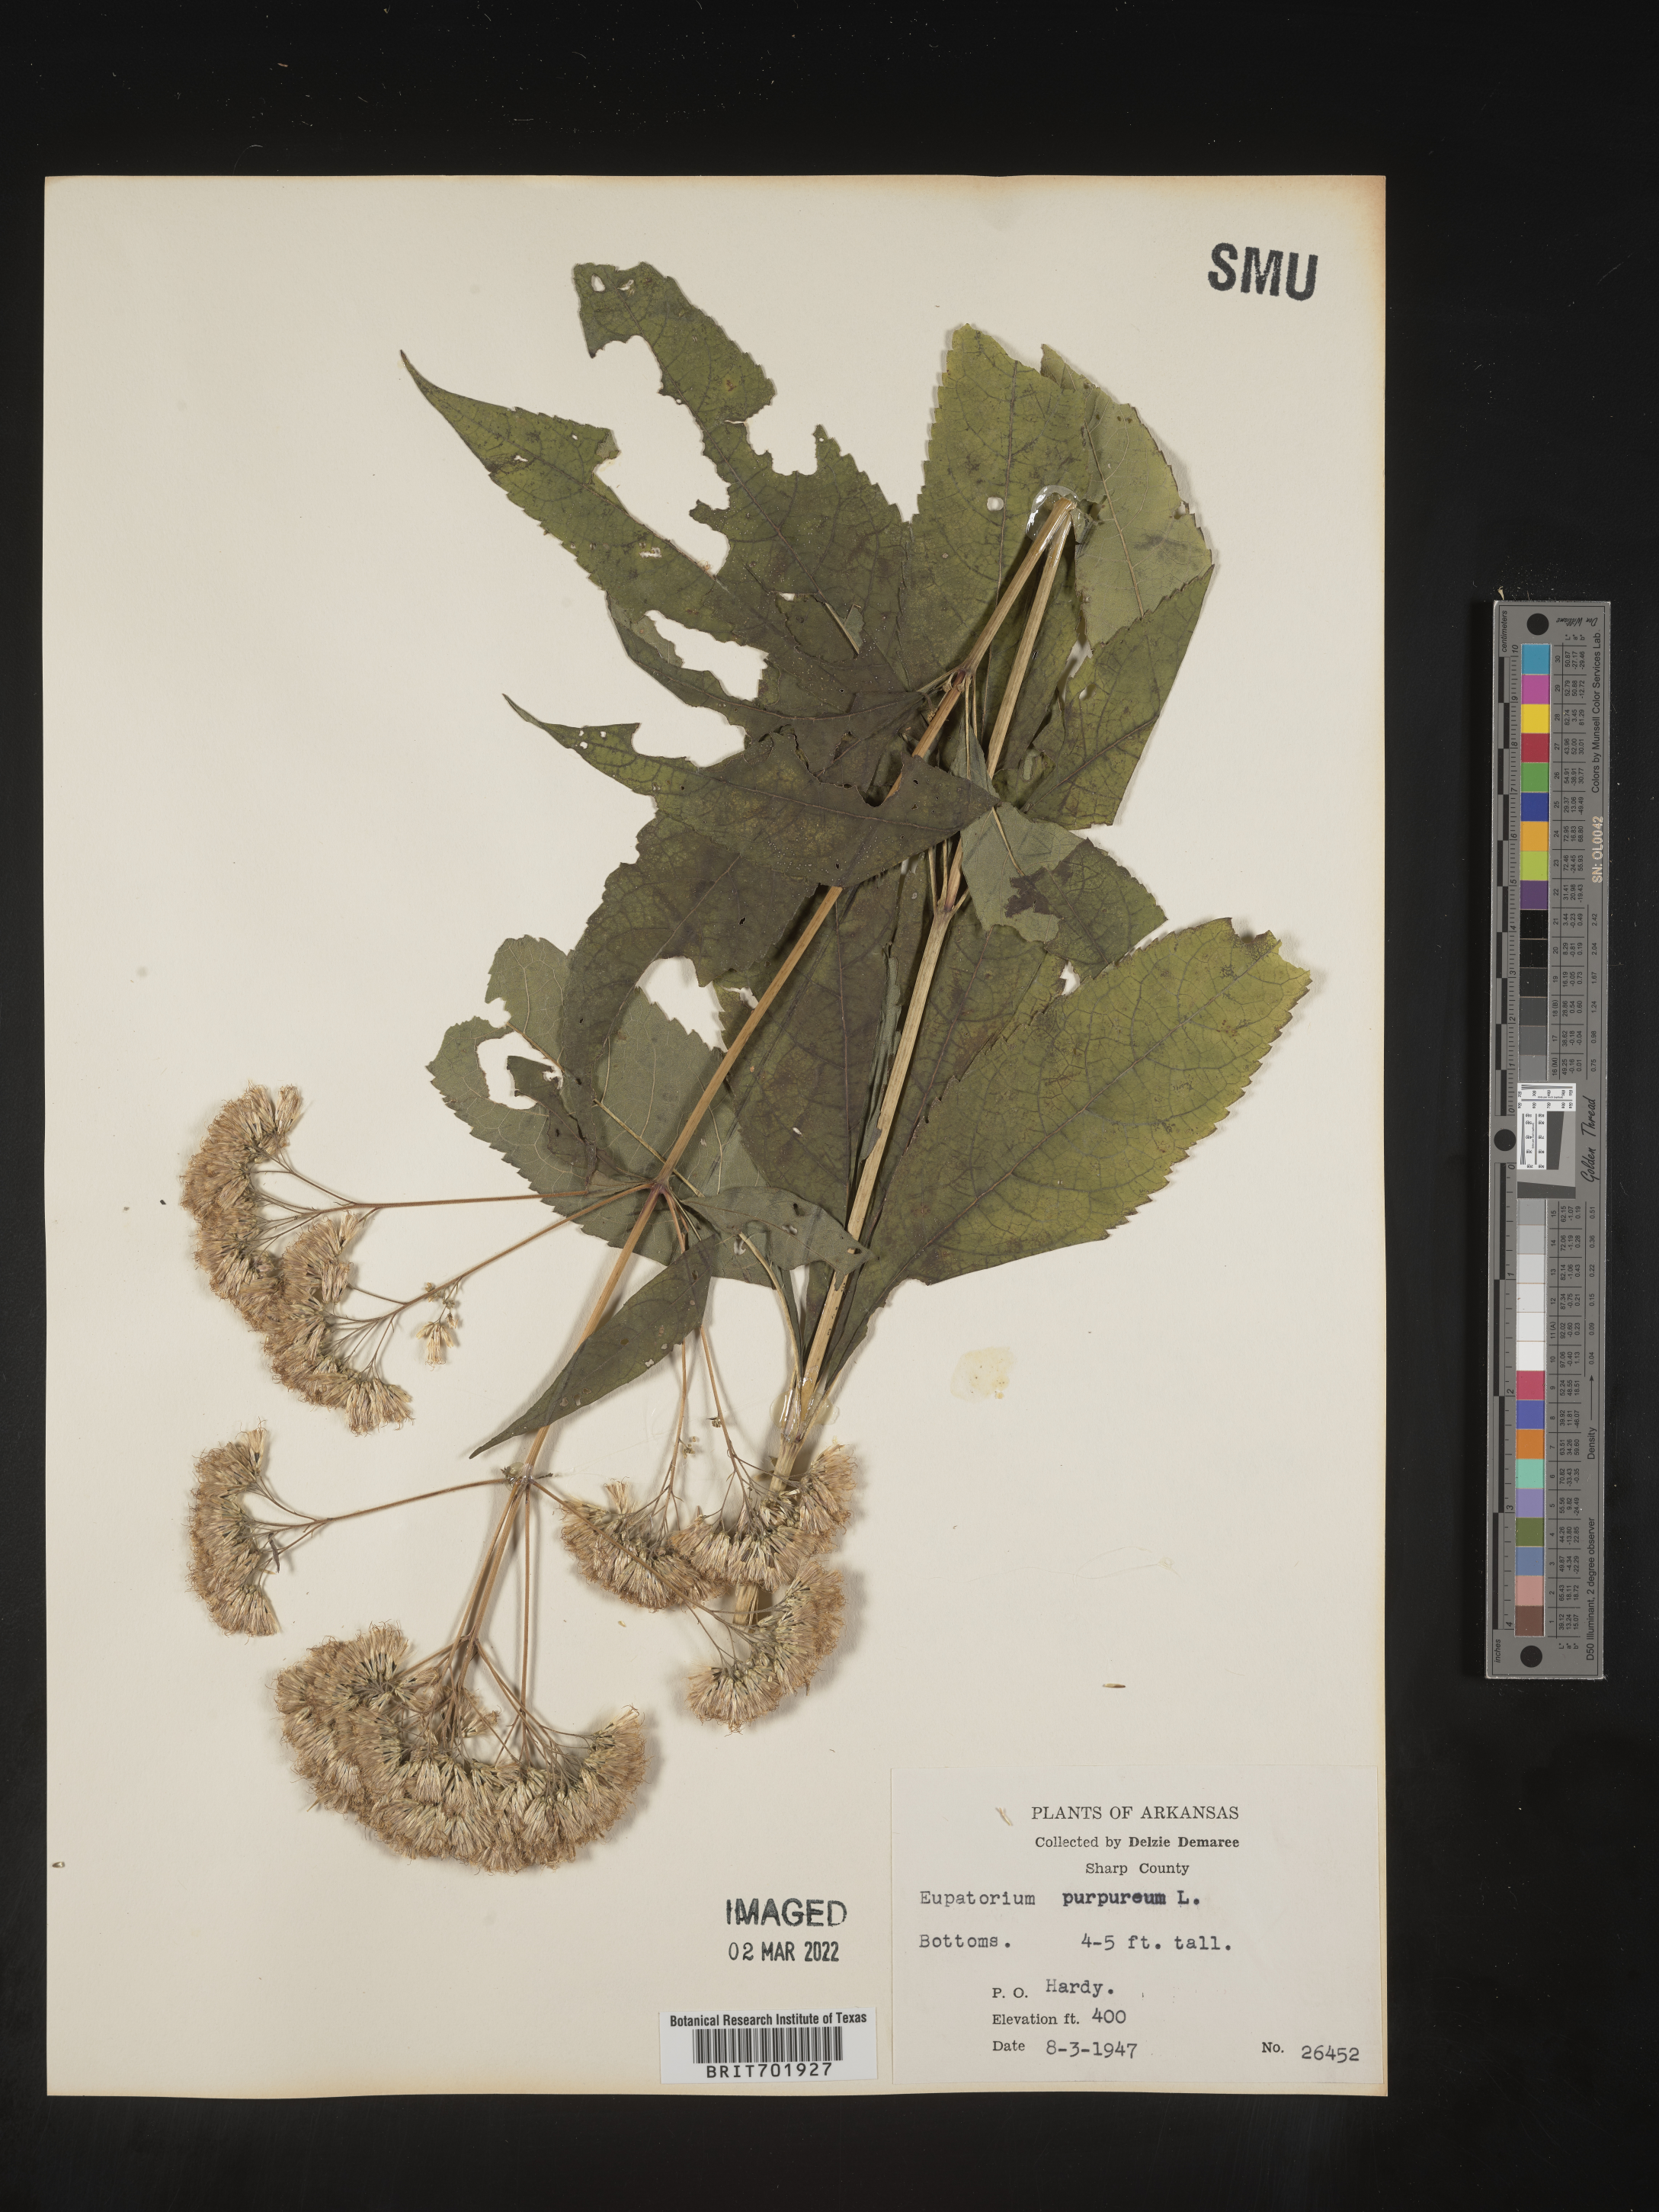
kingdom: Plantae
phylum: Tracheophyta
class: Magnoliopsida
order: Asterales
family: Asteraceae
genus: Eupatorium
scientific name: Eupatorium quaternum
